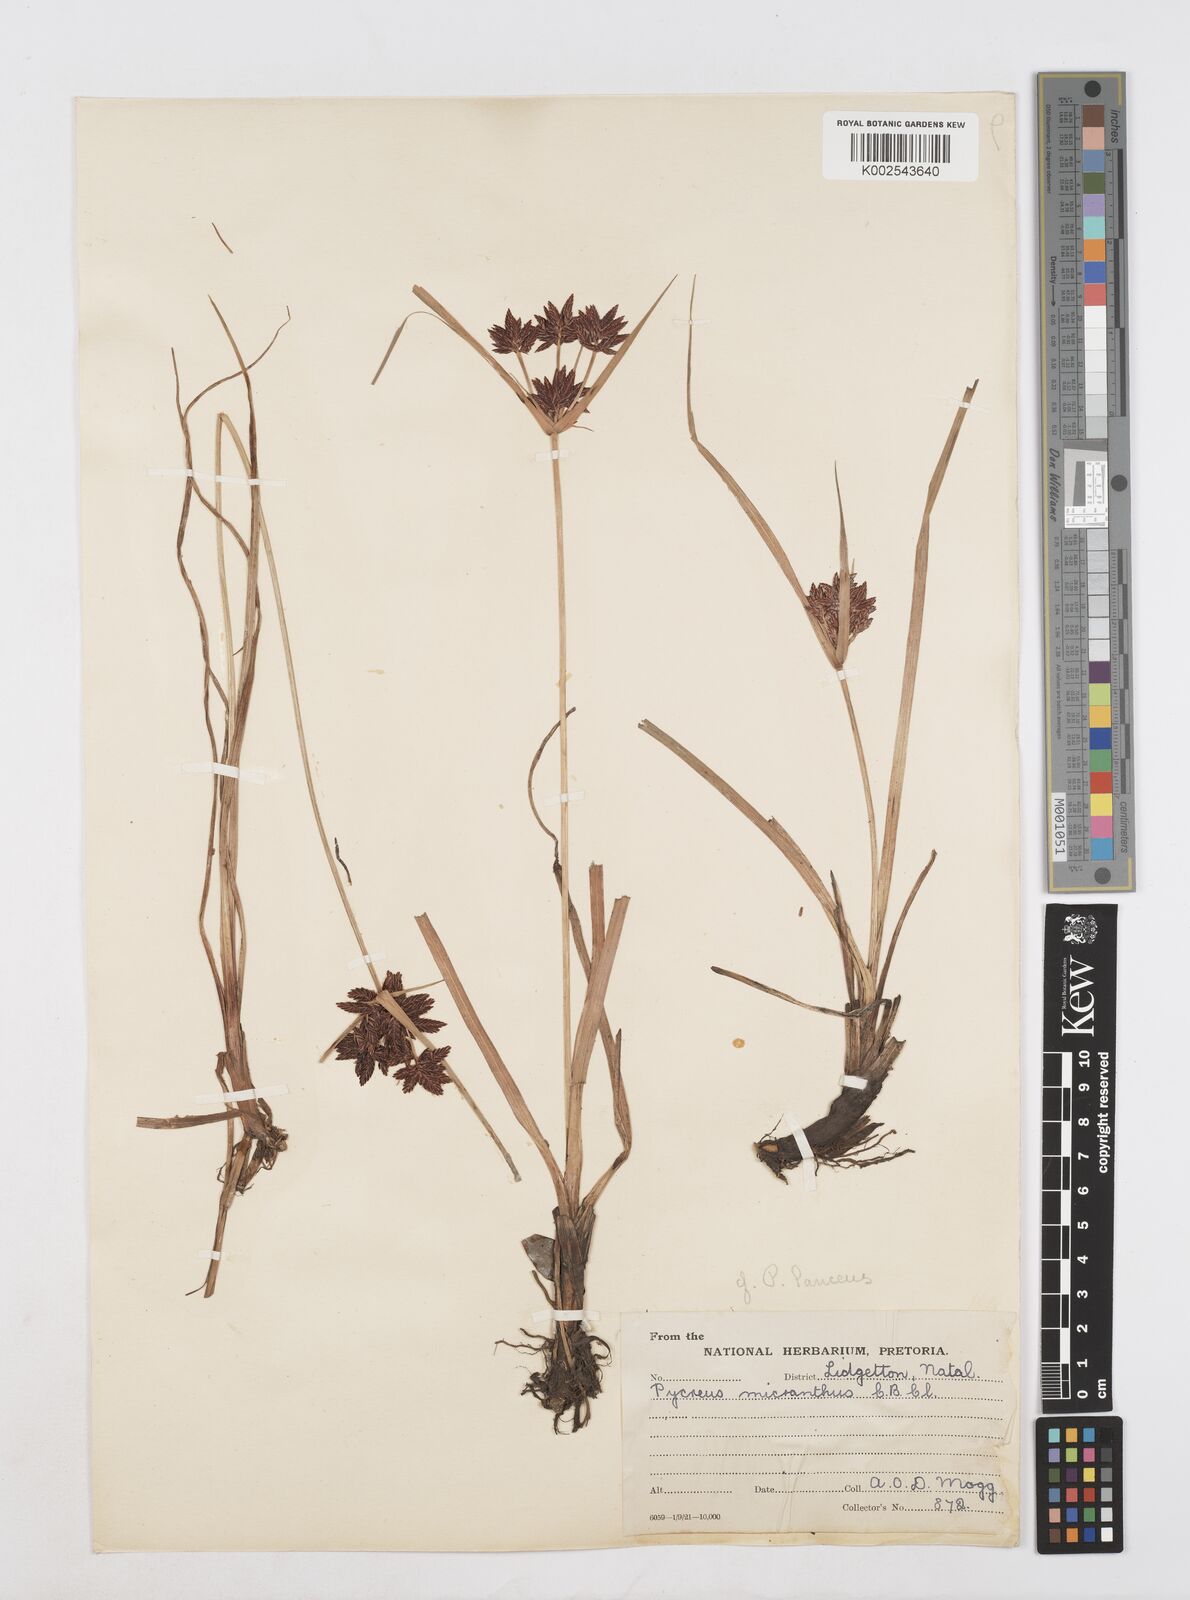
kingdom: Plantae
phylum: Tracheophyta
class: Liliopsida
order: Poales
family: Cyperaceae
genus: Cyperus
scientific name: Cyperus nitidus
